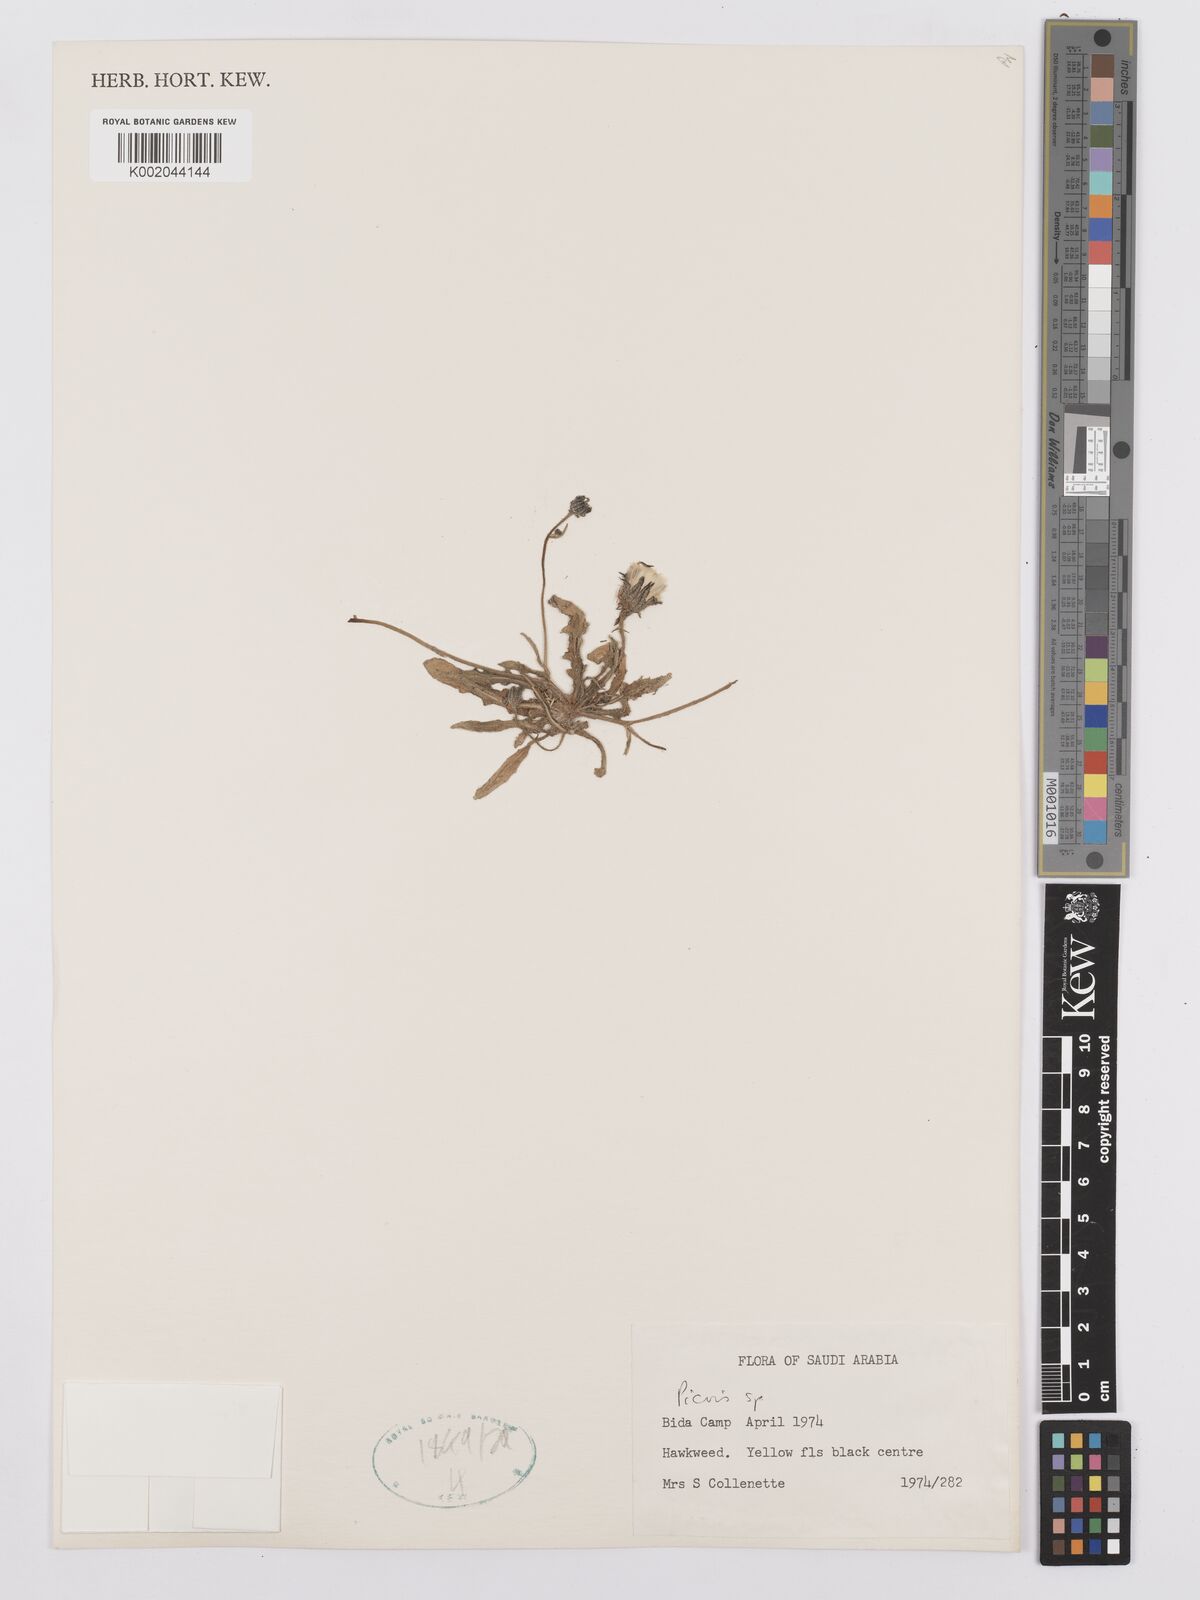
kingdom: Plantae
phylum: Tracheophyta
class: Magnoliopsida
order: Asterales
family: Asteraceae
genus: Picris
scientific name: Picris
